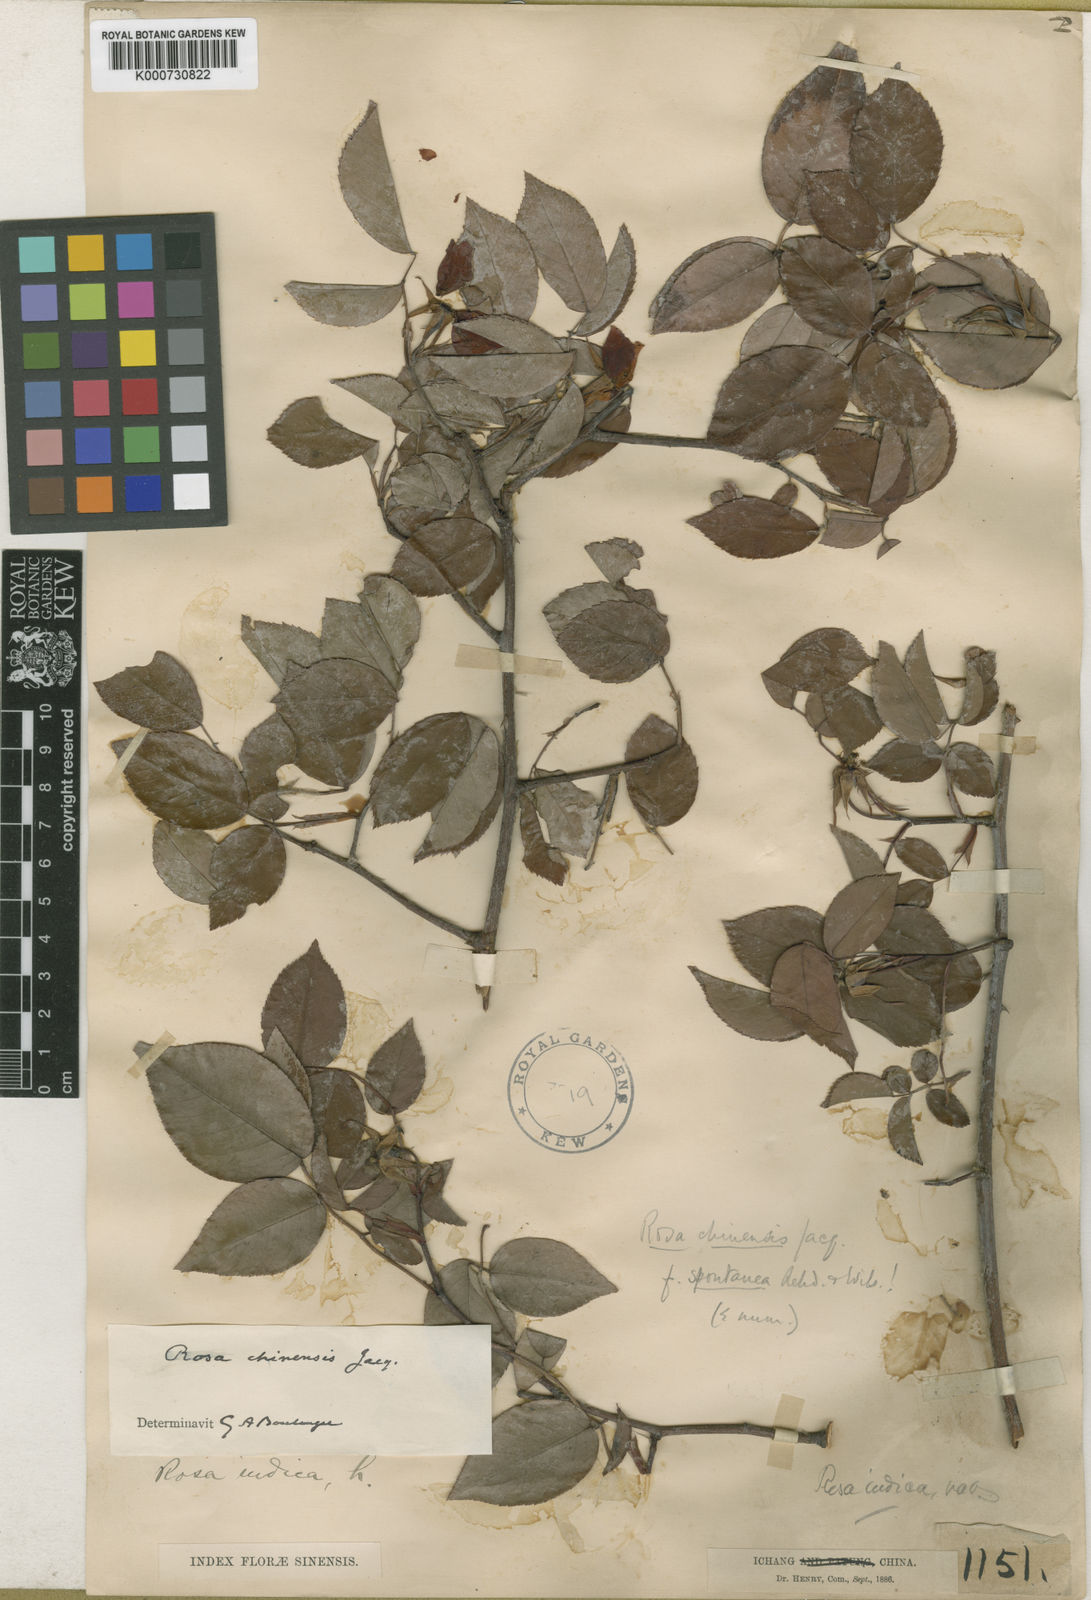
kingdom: Plantae
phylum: Tracheophyta
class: Magnoliopsida
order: Rosales
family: Rosaceae
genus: Rosa
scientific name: Rosa chinensis
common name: China rose
